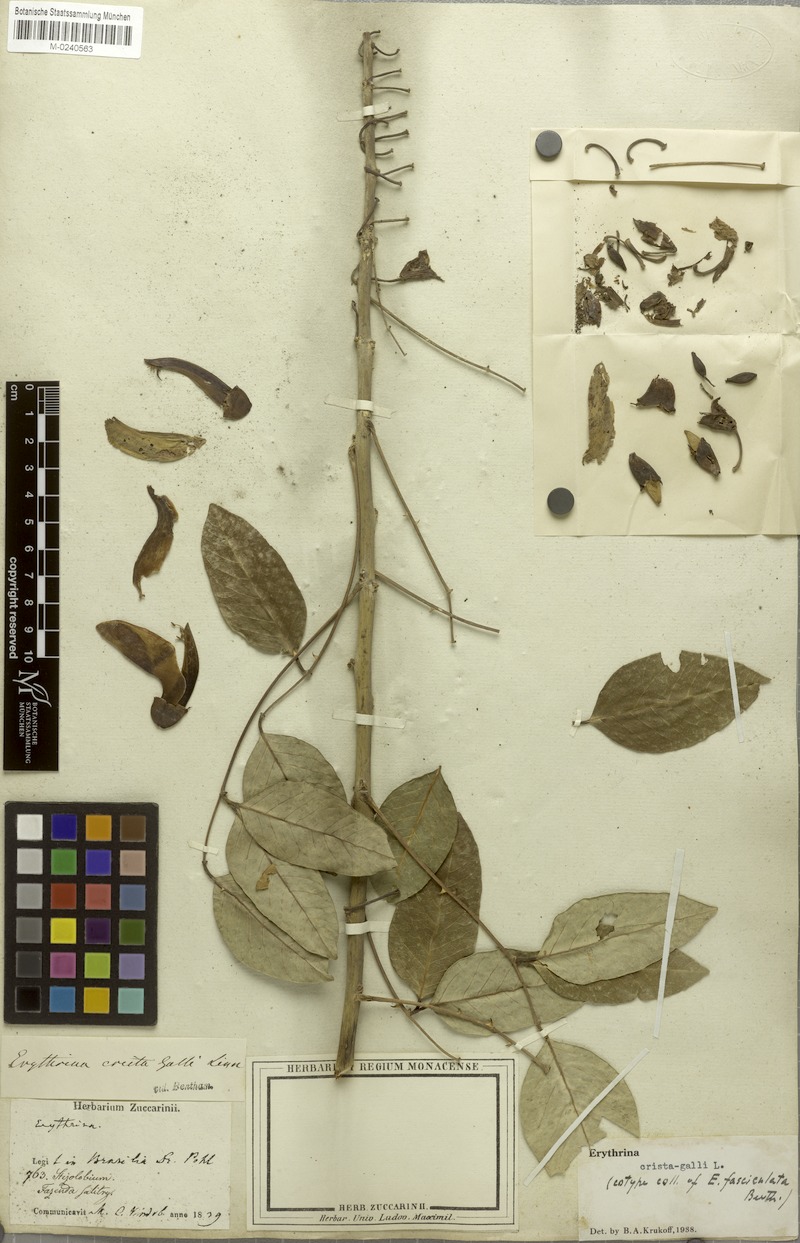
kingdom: Plantae
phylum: Tracheophyta
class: Magnoliopsida
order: Fabales
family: Fabaceae
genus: Erythrina
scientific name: Erythrina crista-galli
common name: Cockspur coral tree
